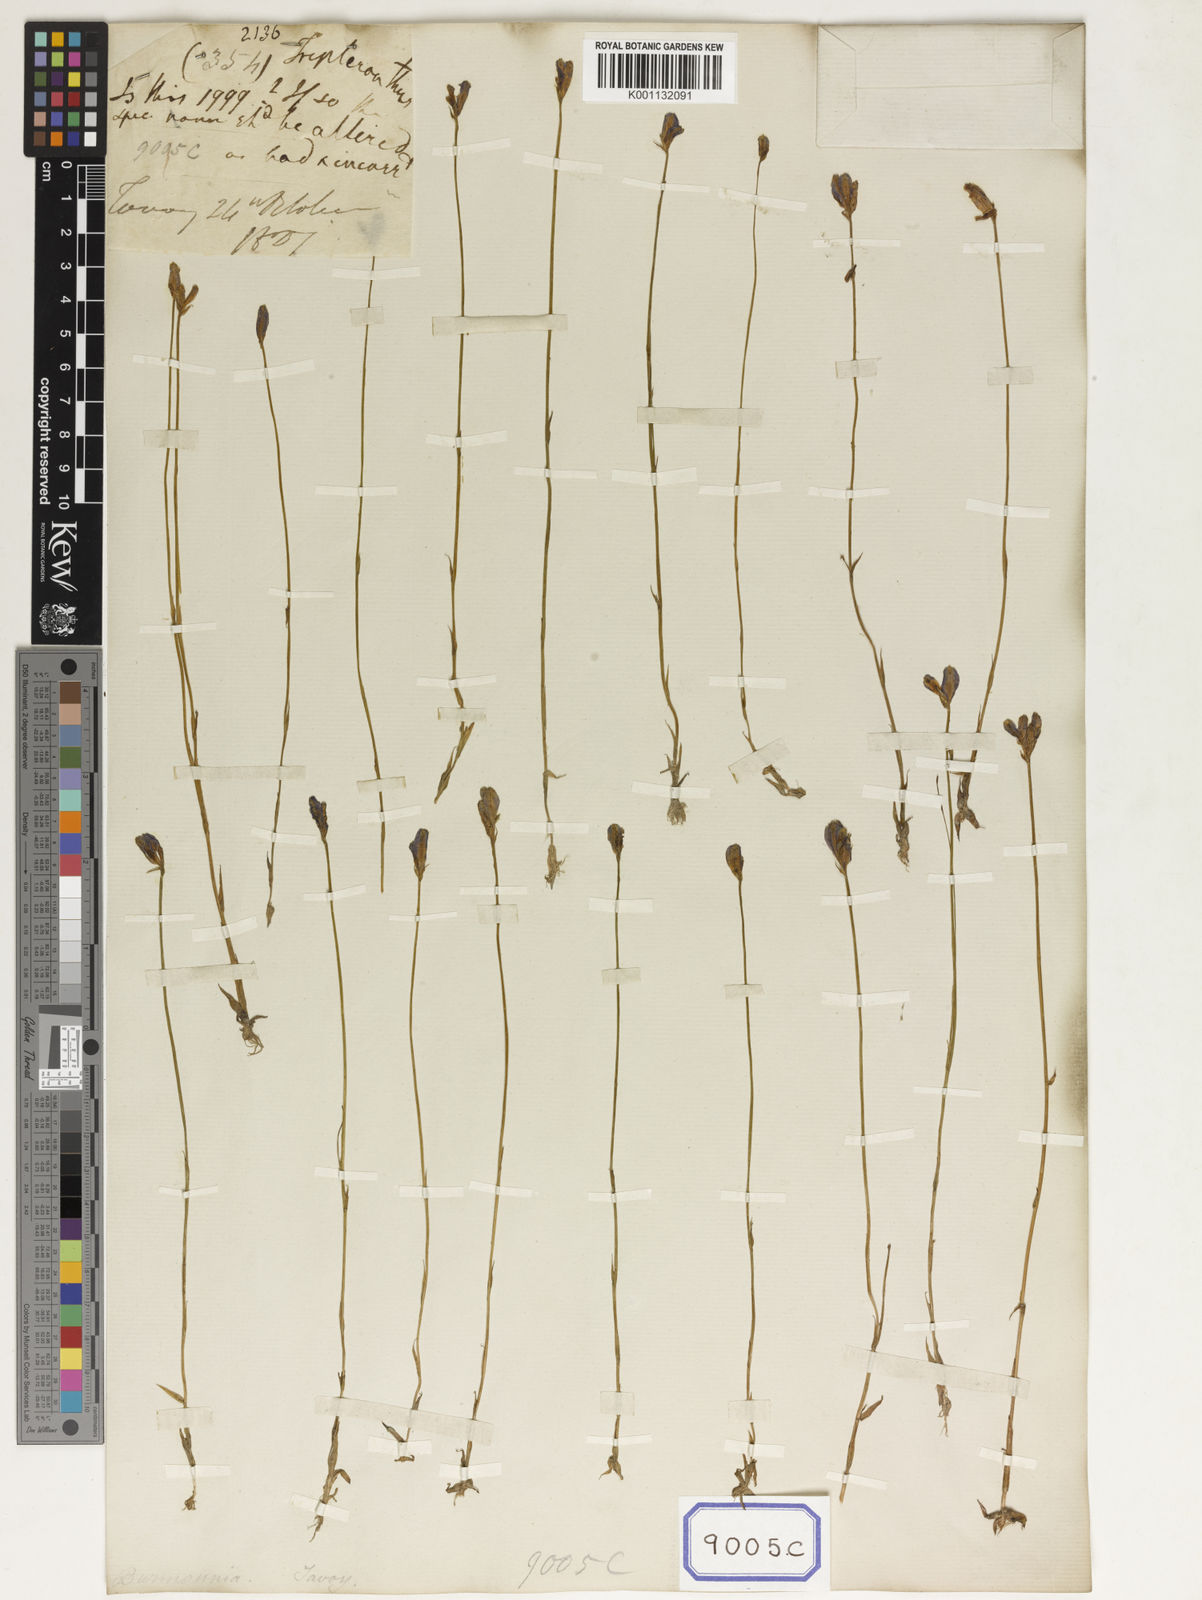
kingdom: Plantae
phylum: Tracheophyta
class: Liliopsida
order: Dioscoreales
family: Burmanniaceae
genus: Burmannia
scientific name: Burmannia coelestis
